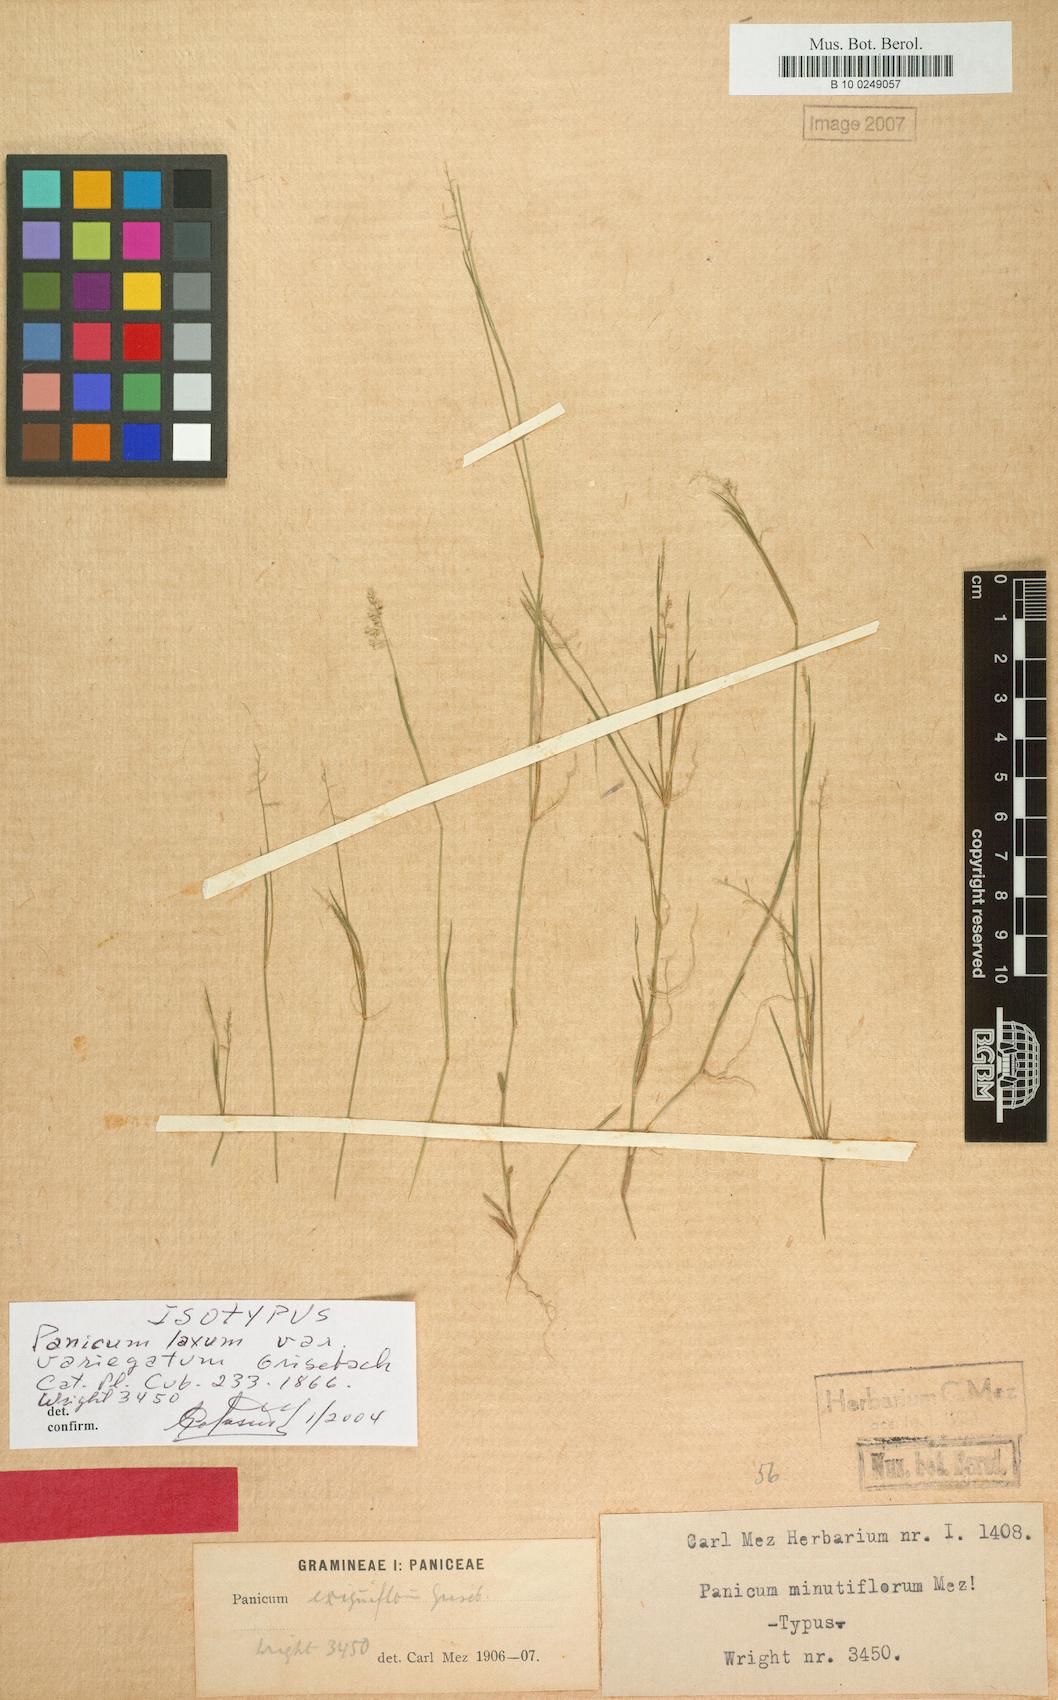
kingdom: Plantae
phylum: Tracheophyta
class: Liliopsida
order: Poales
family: Poaceae
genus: Steinchisma
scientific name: Steinchisma exiguiflorum
